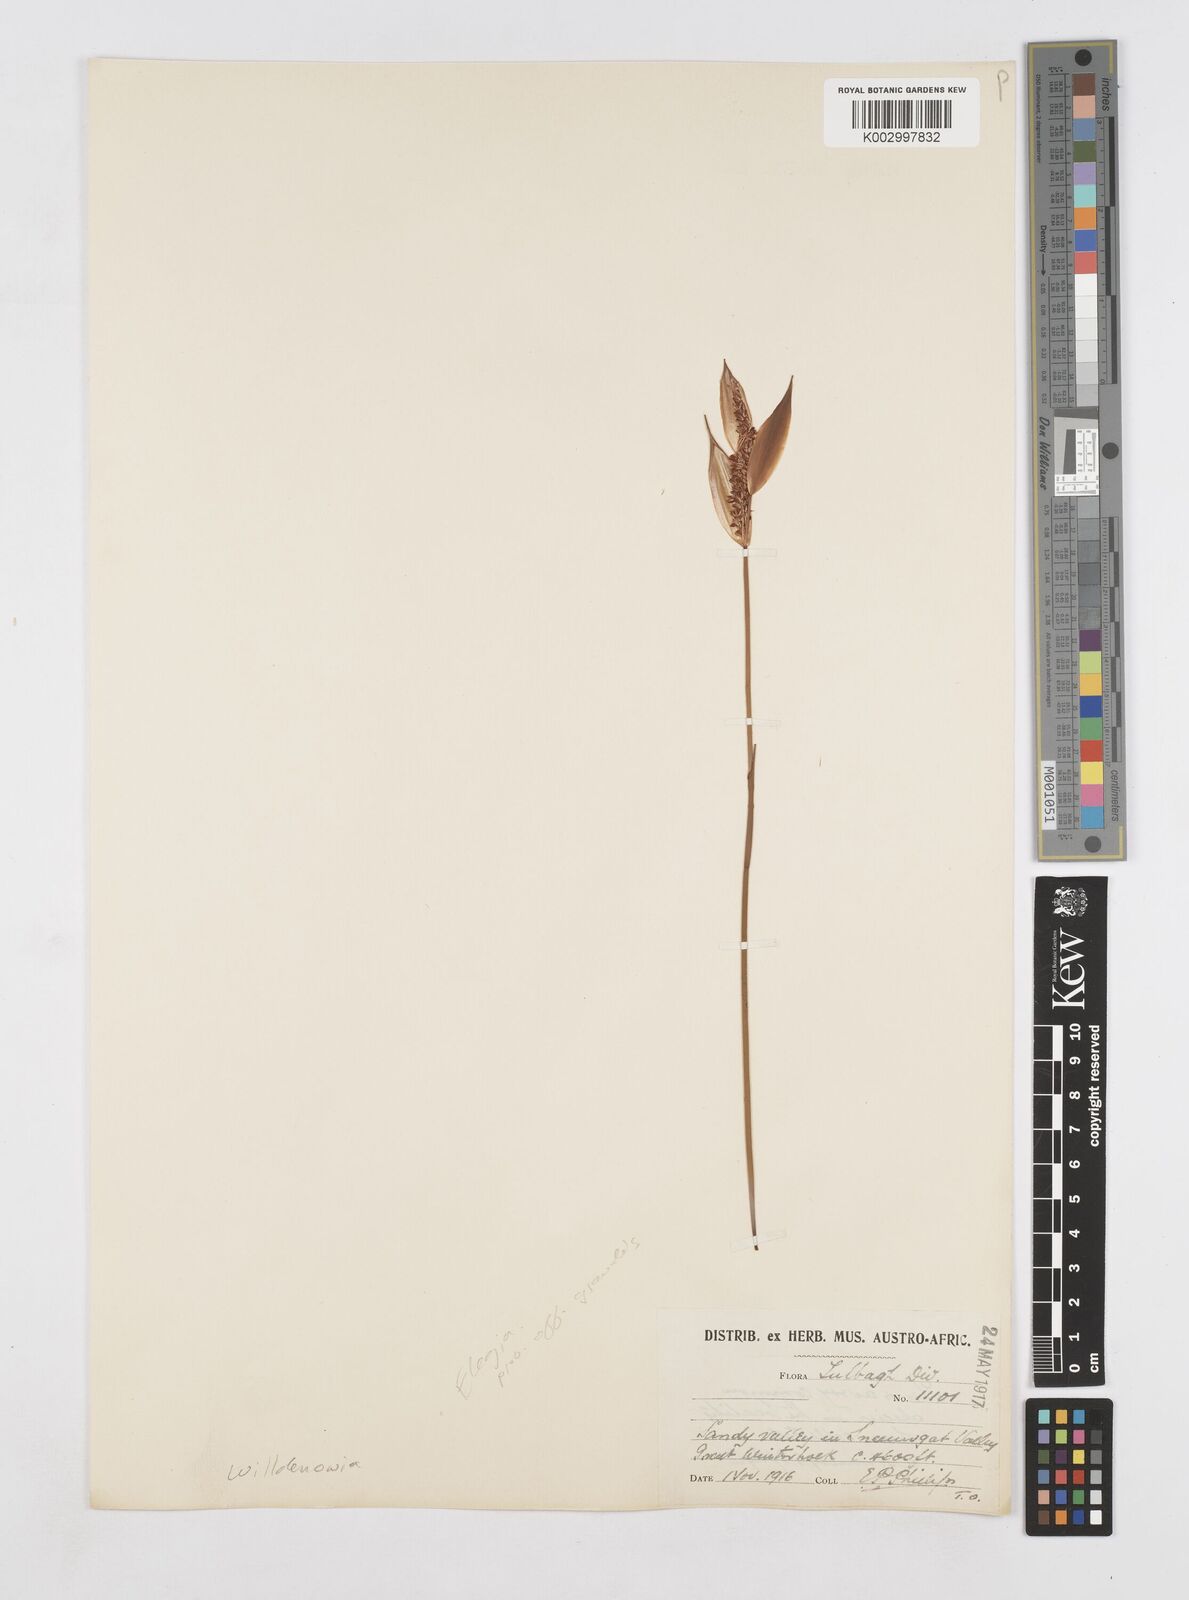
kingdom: Plantae
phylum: Tracheophyta
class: Liliopsida
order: Poales
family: Restionaceae
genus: Elegia
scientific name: Elegia neesii
